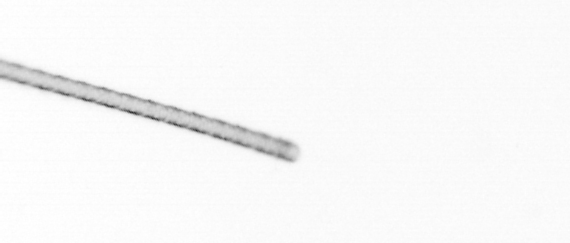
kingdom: Chromista
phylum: Ochrophyta
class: Bacillariophyceae
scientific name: Bacillariophyceae
